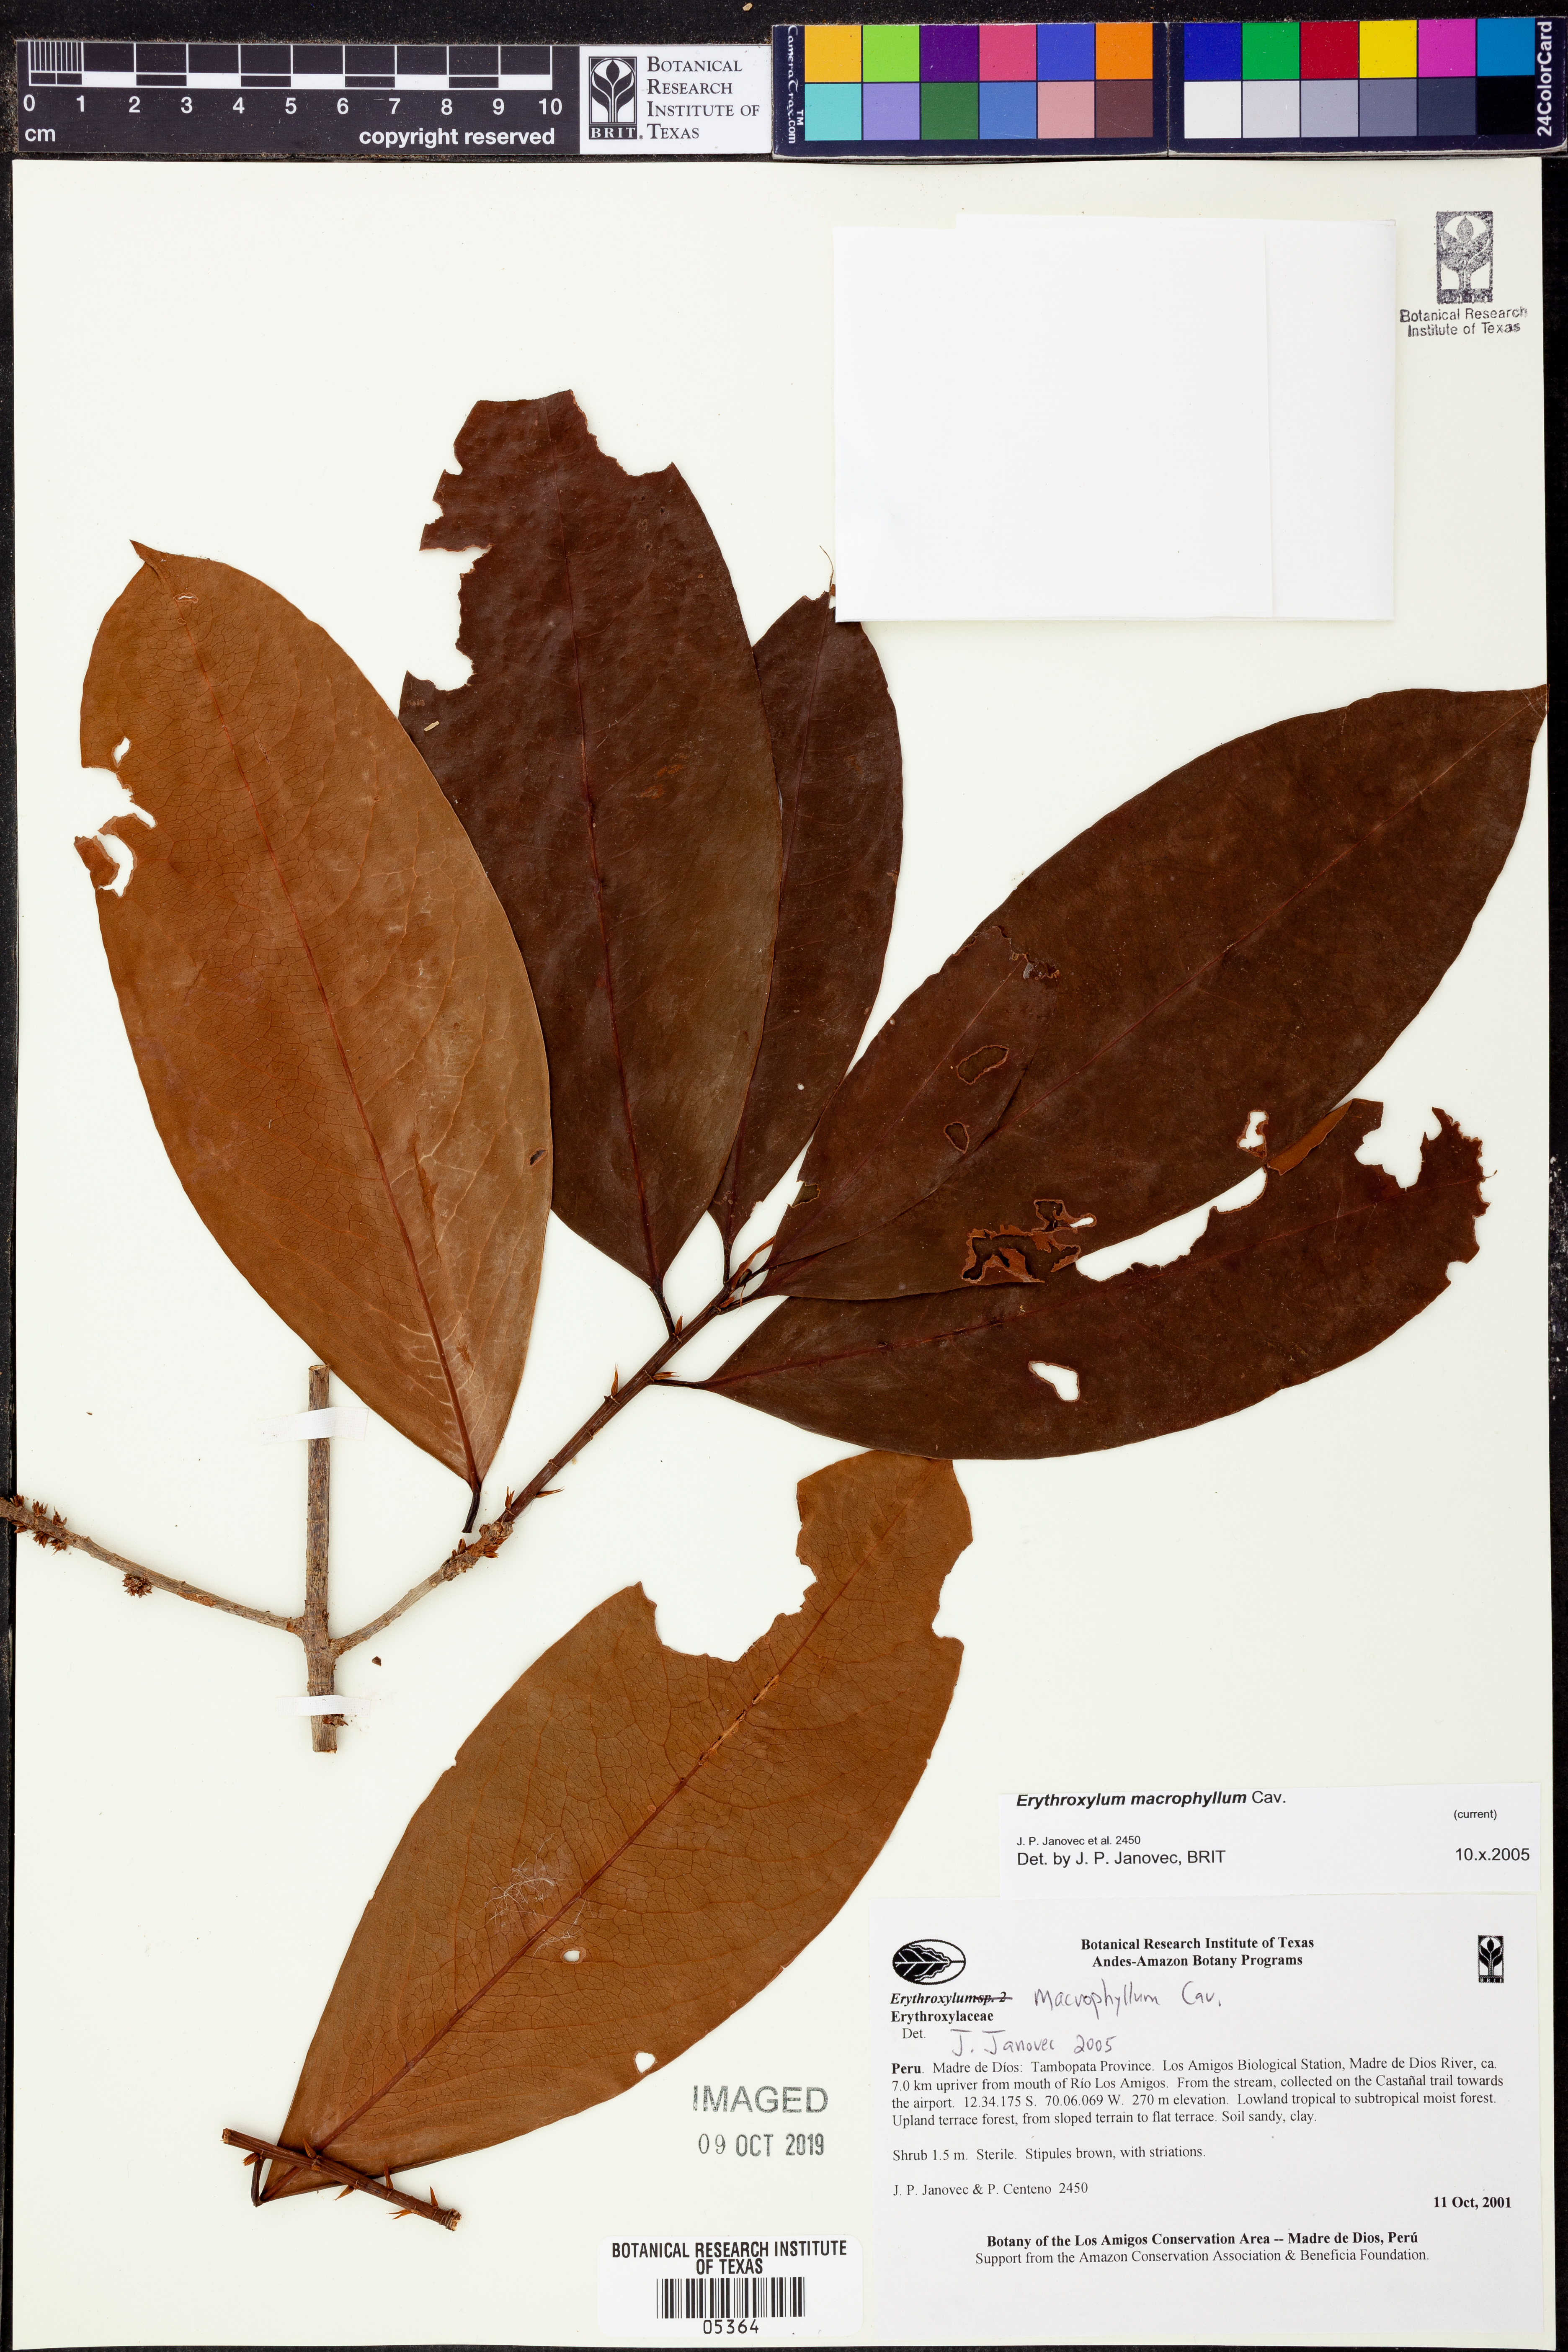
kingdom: Plantae
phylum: Tracheophyta
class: Magnoliopsida
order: Malpighiales
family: Erythroxylaceae
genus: Erythroxylum
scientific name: Erythroxylum
